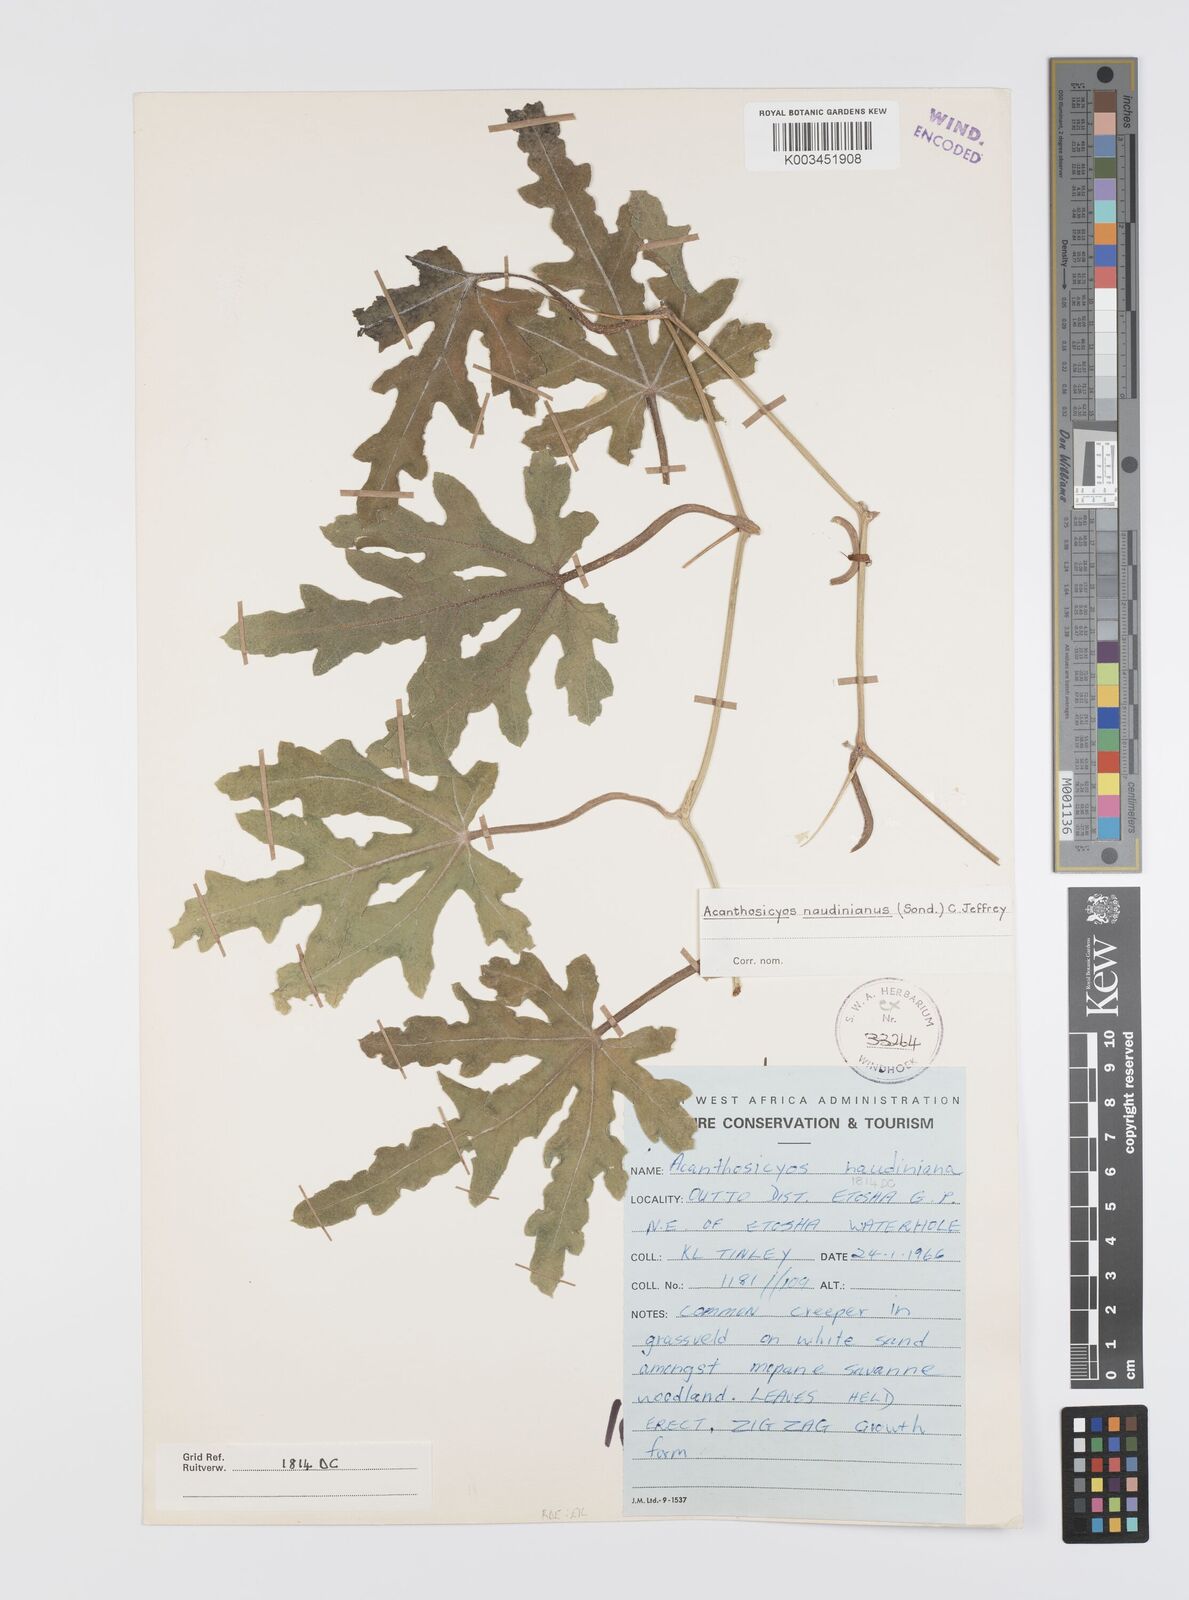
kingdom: Plantae
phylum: Tracheophyta
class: Magnoliopsida
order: Cucurbitales
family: Cucurbitaceae
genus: Citrullus
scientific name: Citrullus naudinianus
